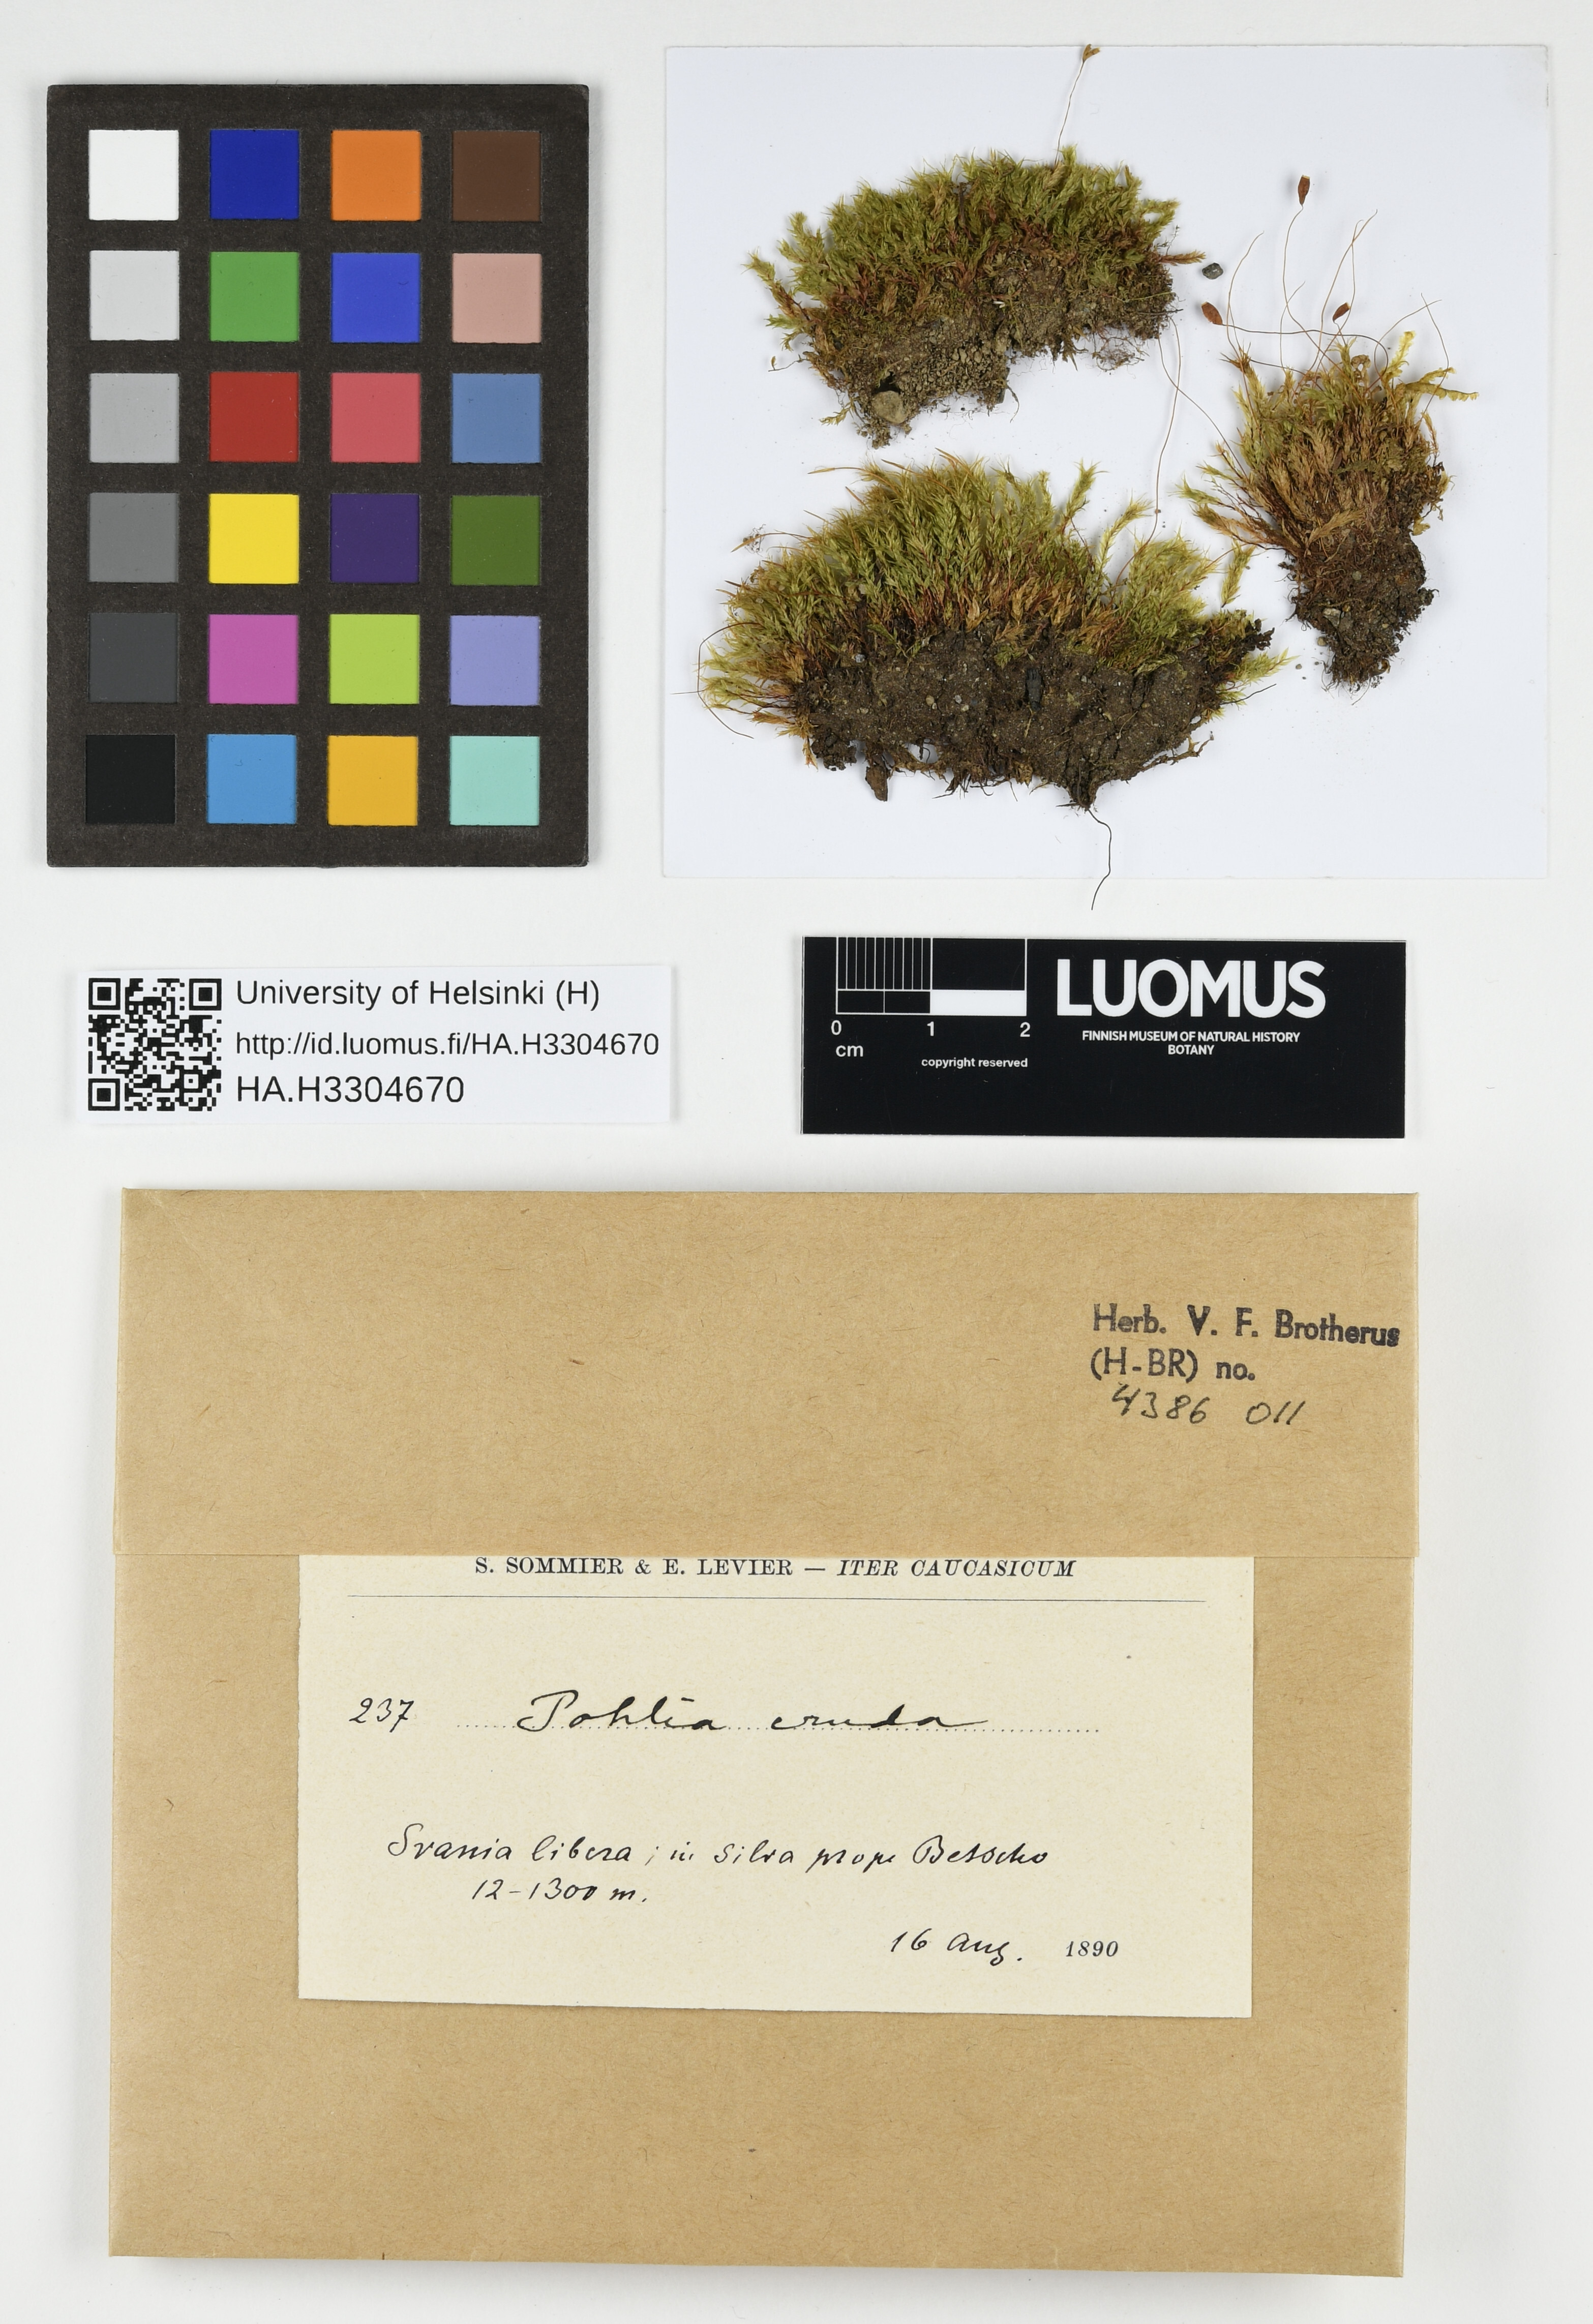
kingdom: Plantae
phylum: Bryophyta
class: Bryopsida
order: Bryales
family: Mniaceae
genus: Pohlia
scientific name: Pohlia cruda
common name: Opal nodding moss
